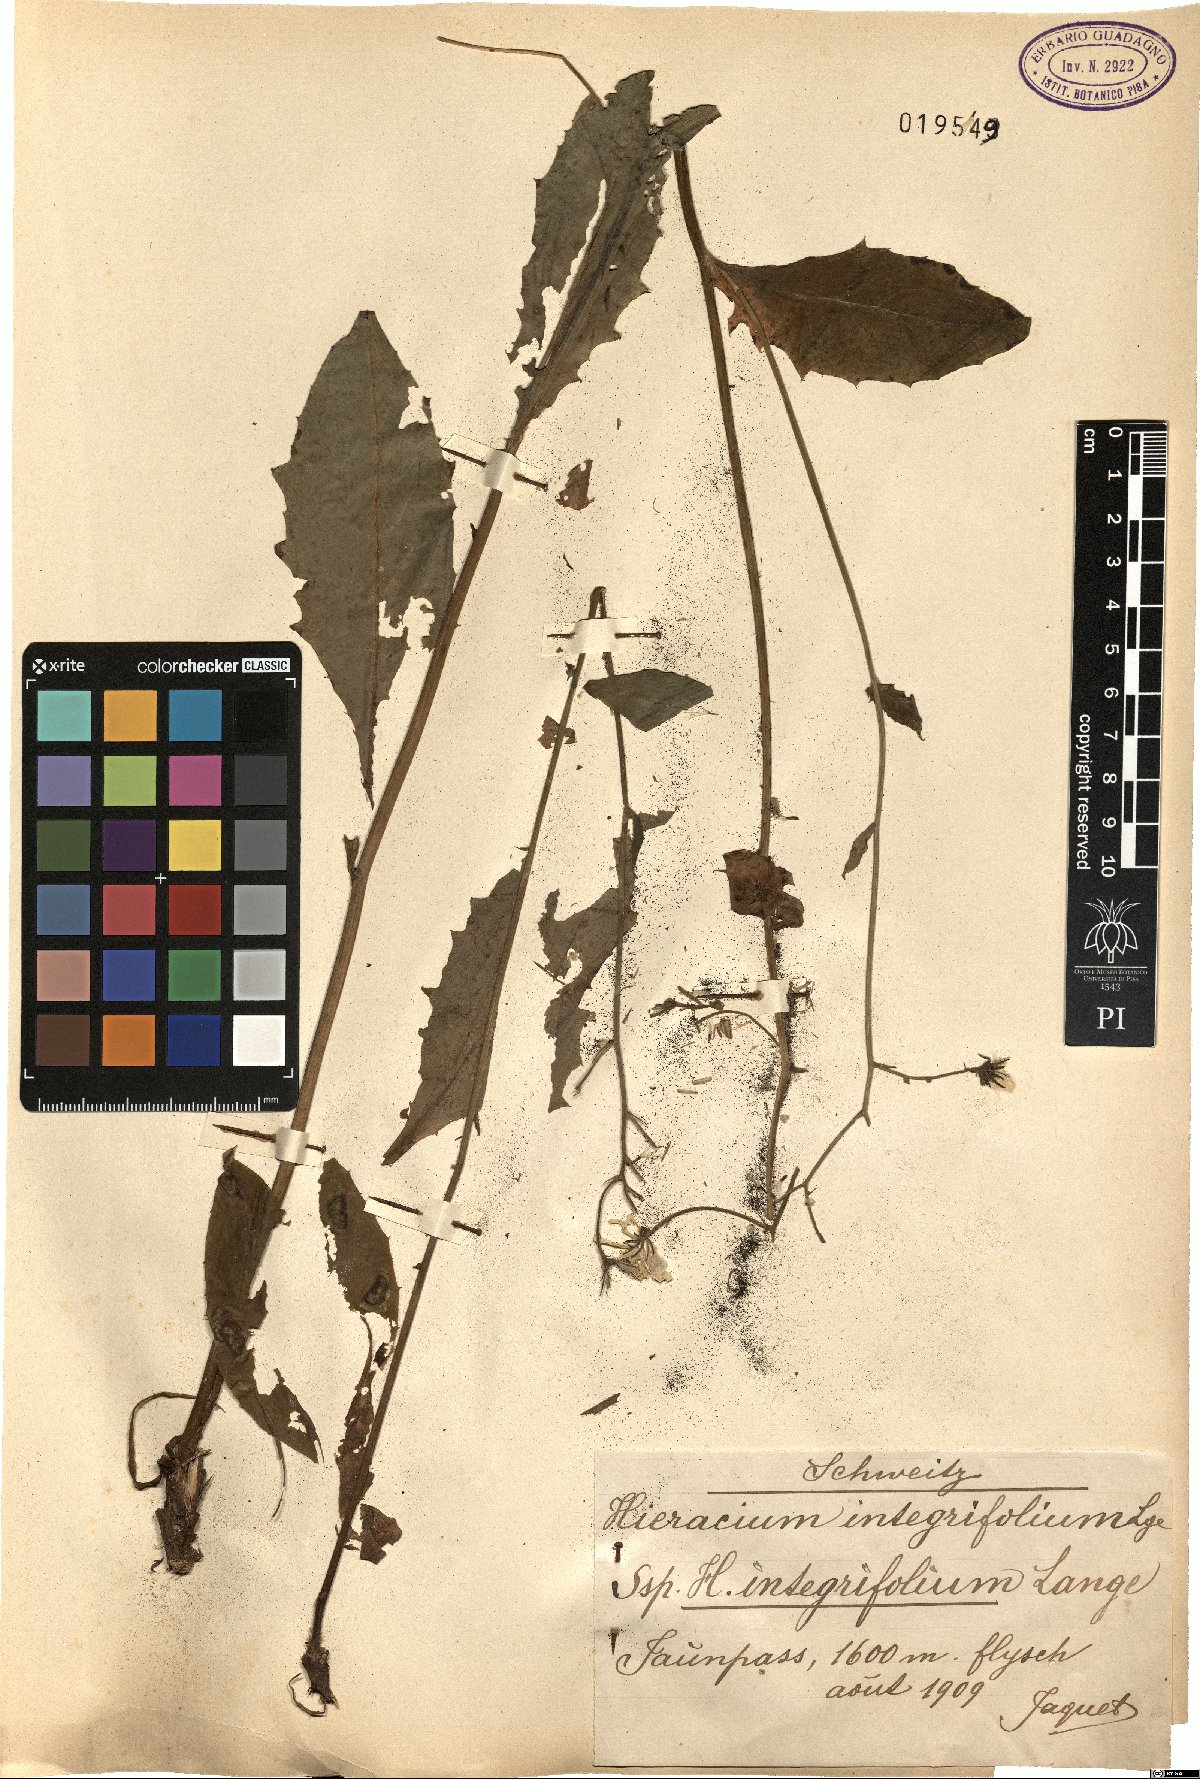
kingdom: Plantae
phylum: Tracheophyta
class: Magnoliopsida
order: Asterales
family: Asteraceae
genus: Hieracium
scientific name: Hieracium umbrosum
